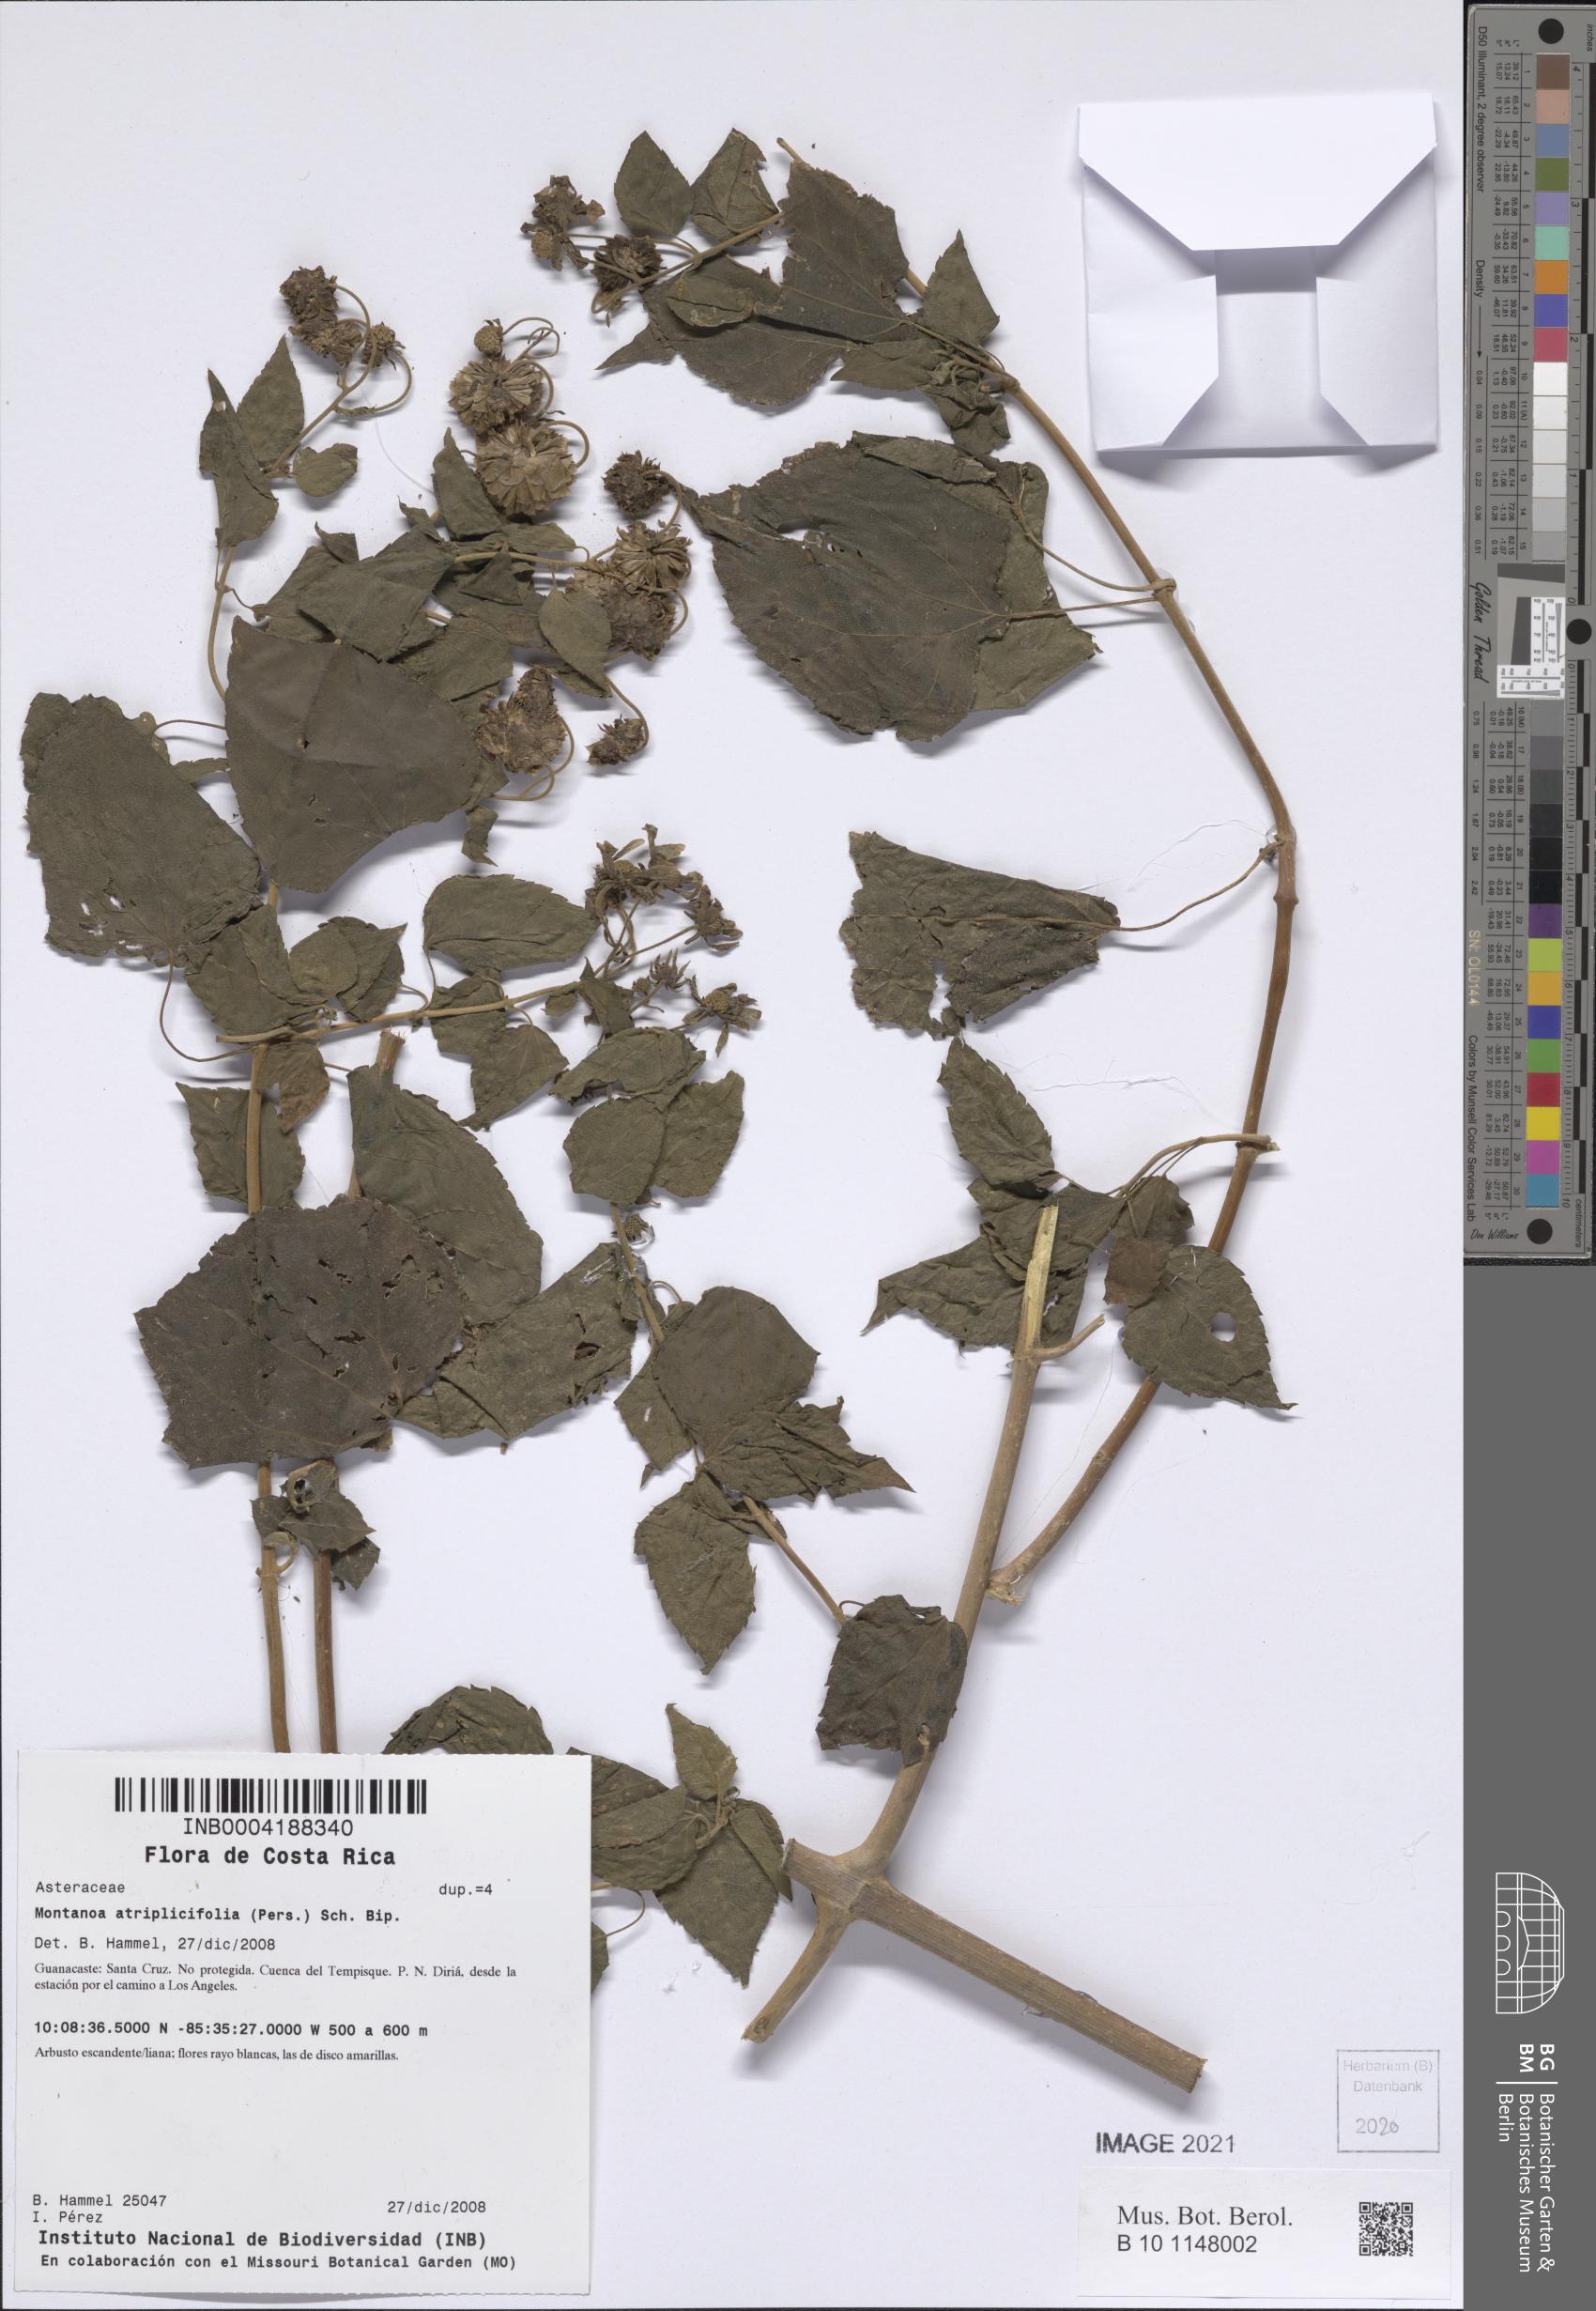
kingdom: Plantae
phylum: Tracheophyta
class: Magnoliopsida
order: Asterales
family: Asteraceae
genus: Montanoa
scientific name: Montanoa atriplicifolia
